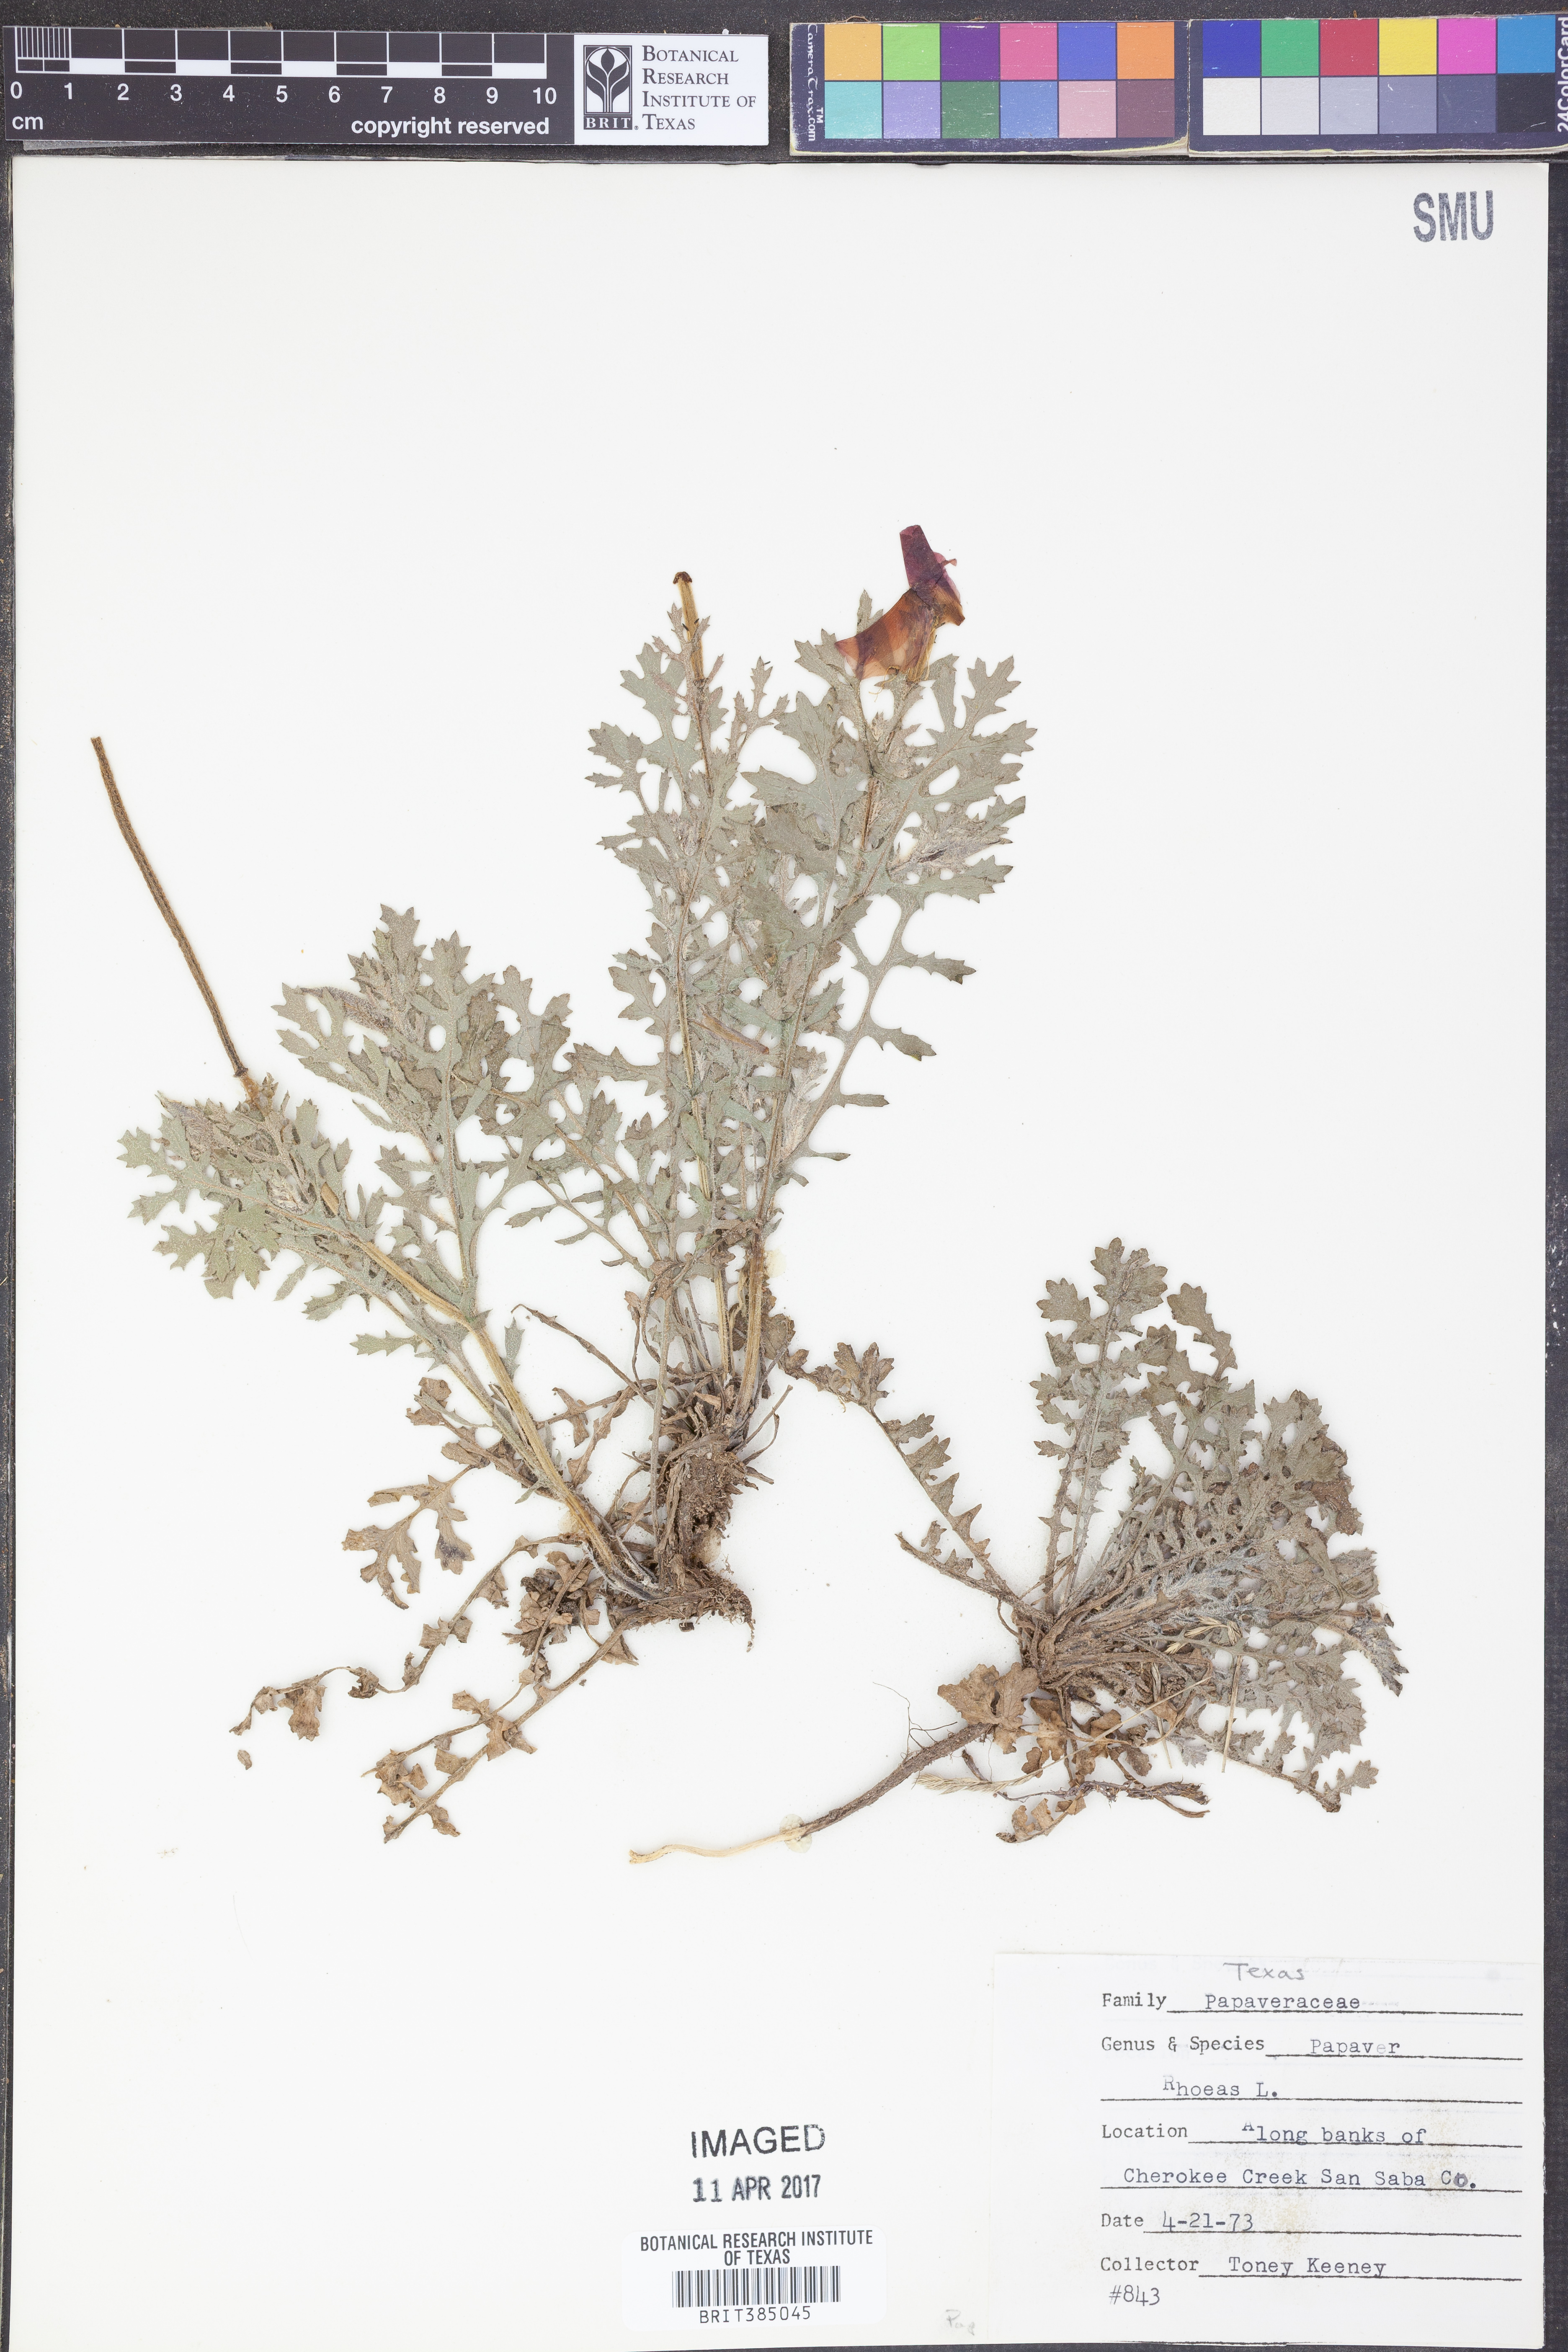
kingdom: Plantae
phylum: Tracheophyta
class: Magnoliopsida
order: Ranunculales
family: Papaveraceae
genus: Papaver
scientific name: Papaver rhoeas
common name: Corn poppy
